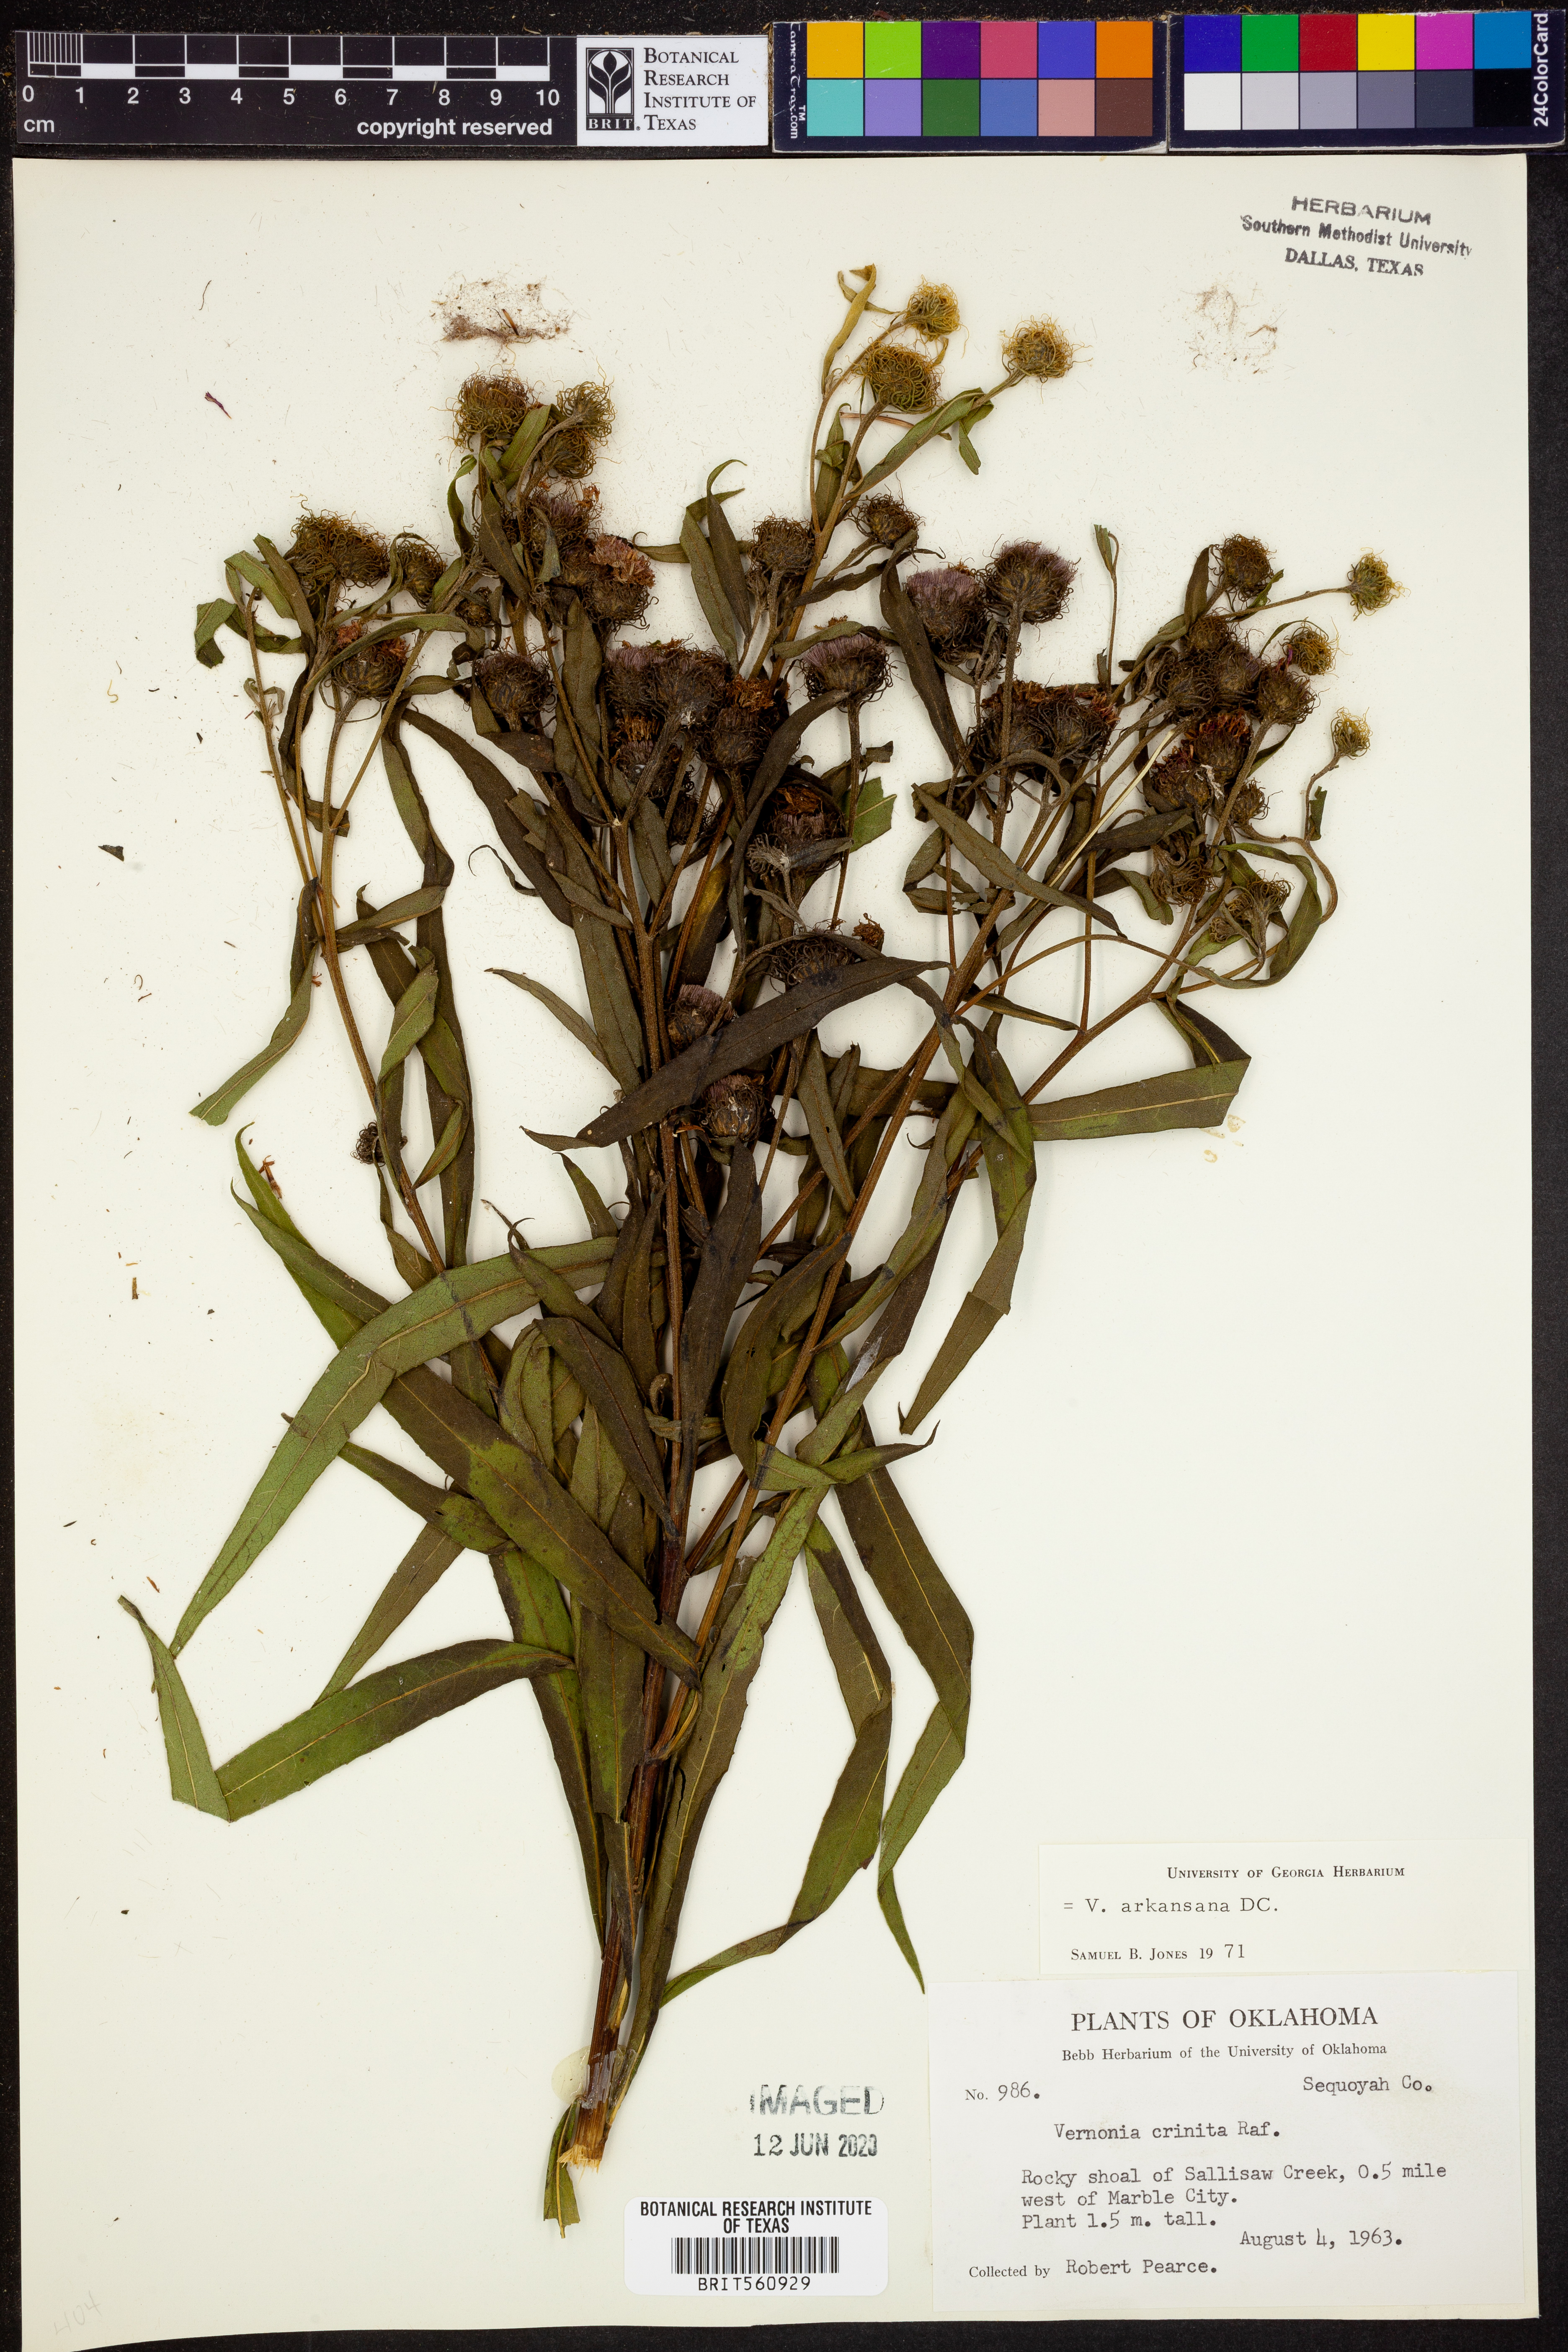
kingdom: Plantae
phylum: Tracheophyta
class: Magnoliopsida
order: Asterales
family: Asteraceae
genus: Vernonia
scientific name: Vernonia arkansana
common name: Ozark ironweed
